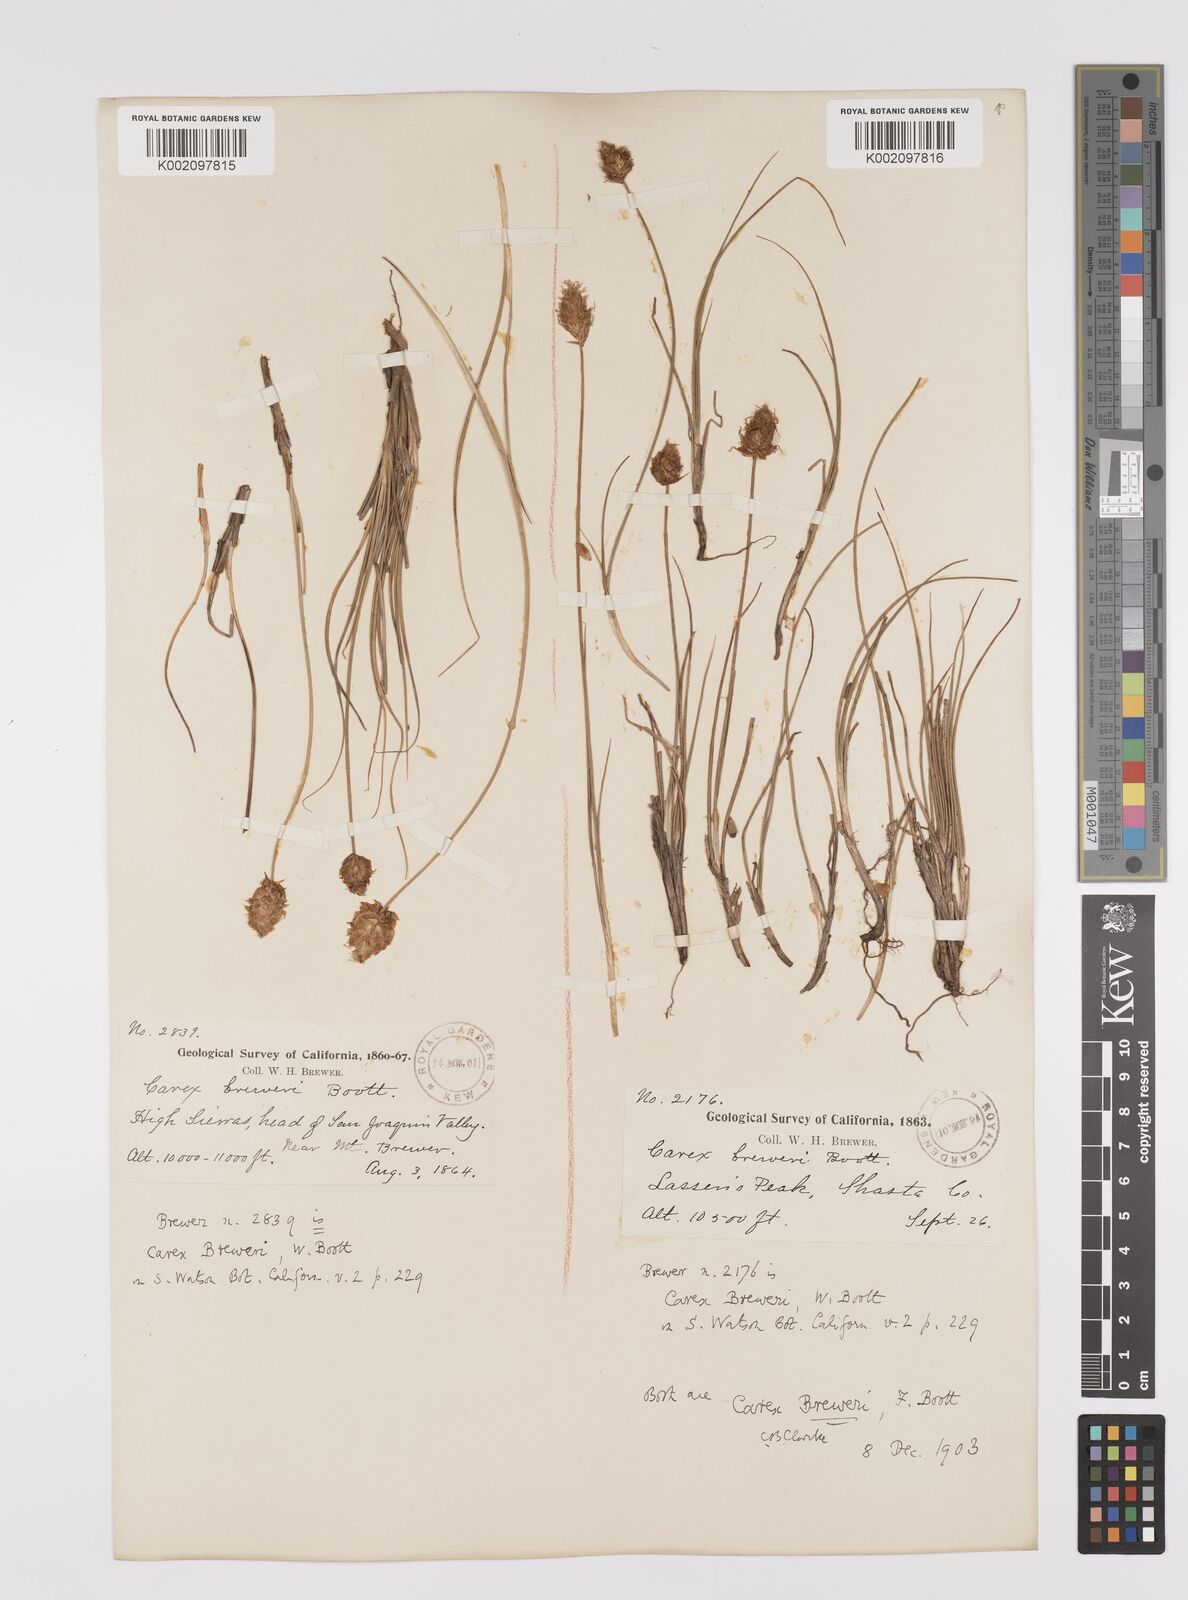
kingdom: Plantae
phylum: Tracheophyta
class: Liliopsida
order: Poales
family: Cyperaceae
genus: Carex
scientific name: Carex breweri
